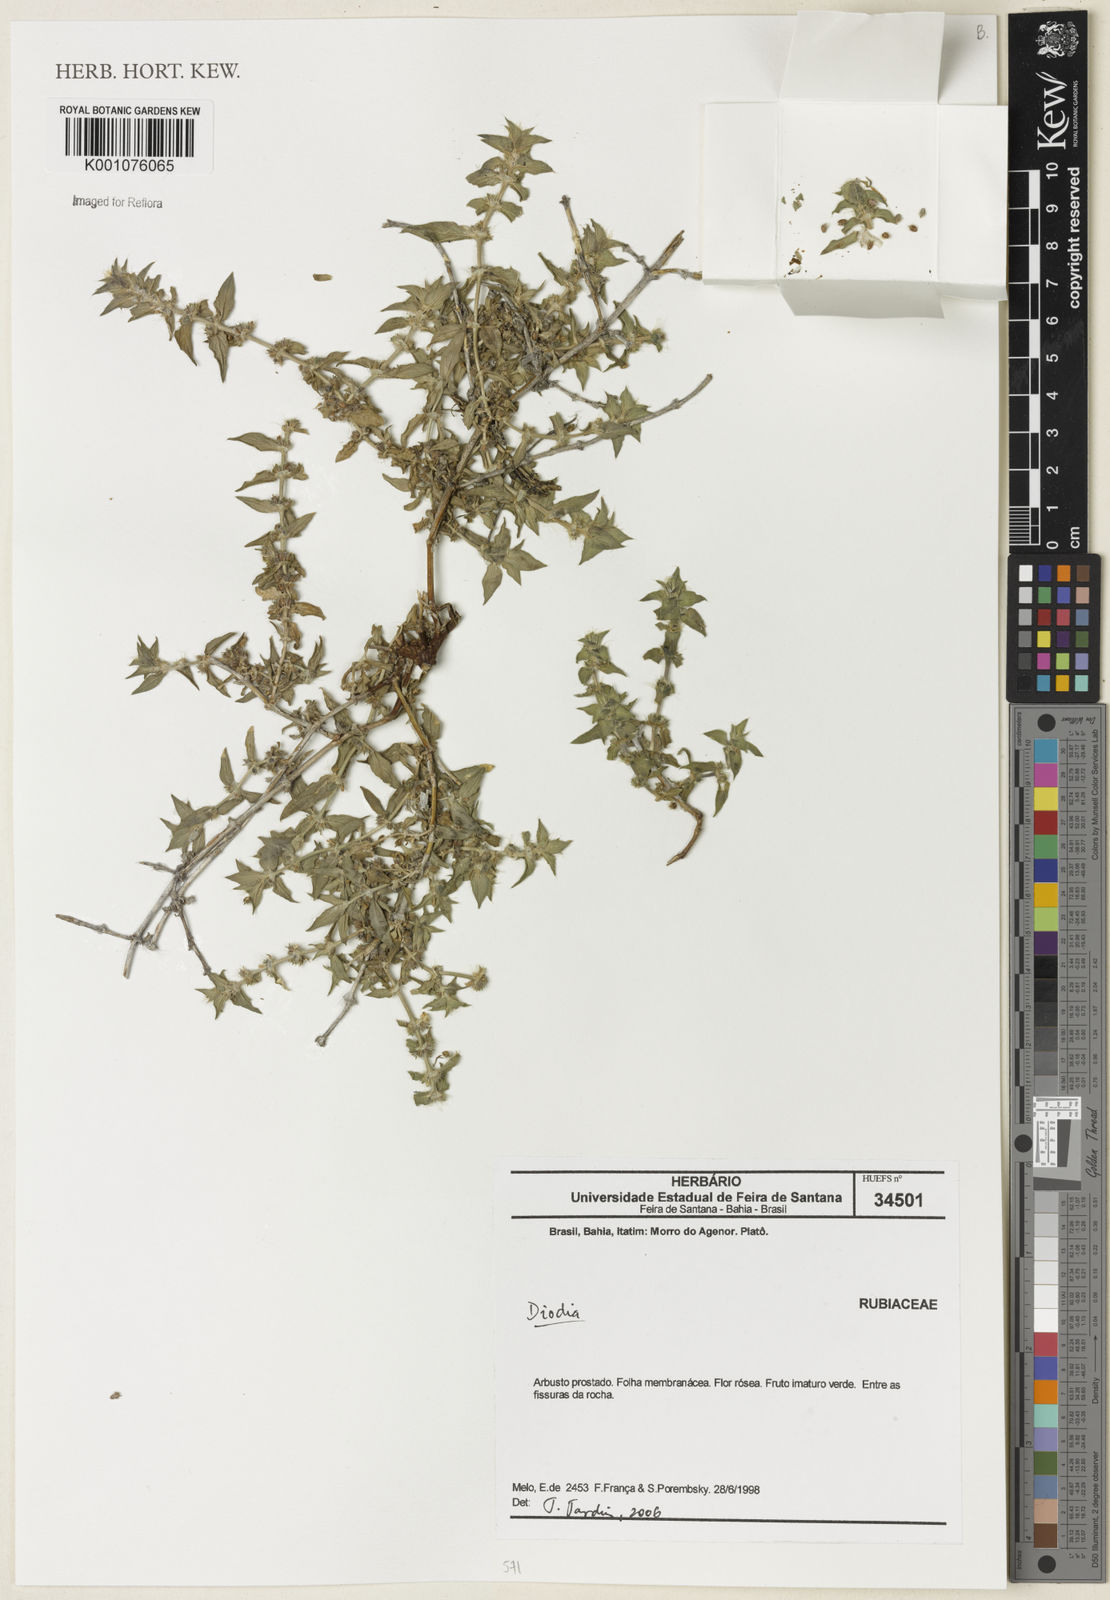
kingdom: Plantae
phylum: Tracheophyta
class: Magnoliopsida
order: Gentianales
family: Rubiaceae
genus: Diodia
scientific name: Diodia
